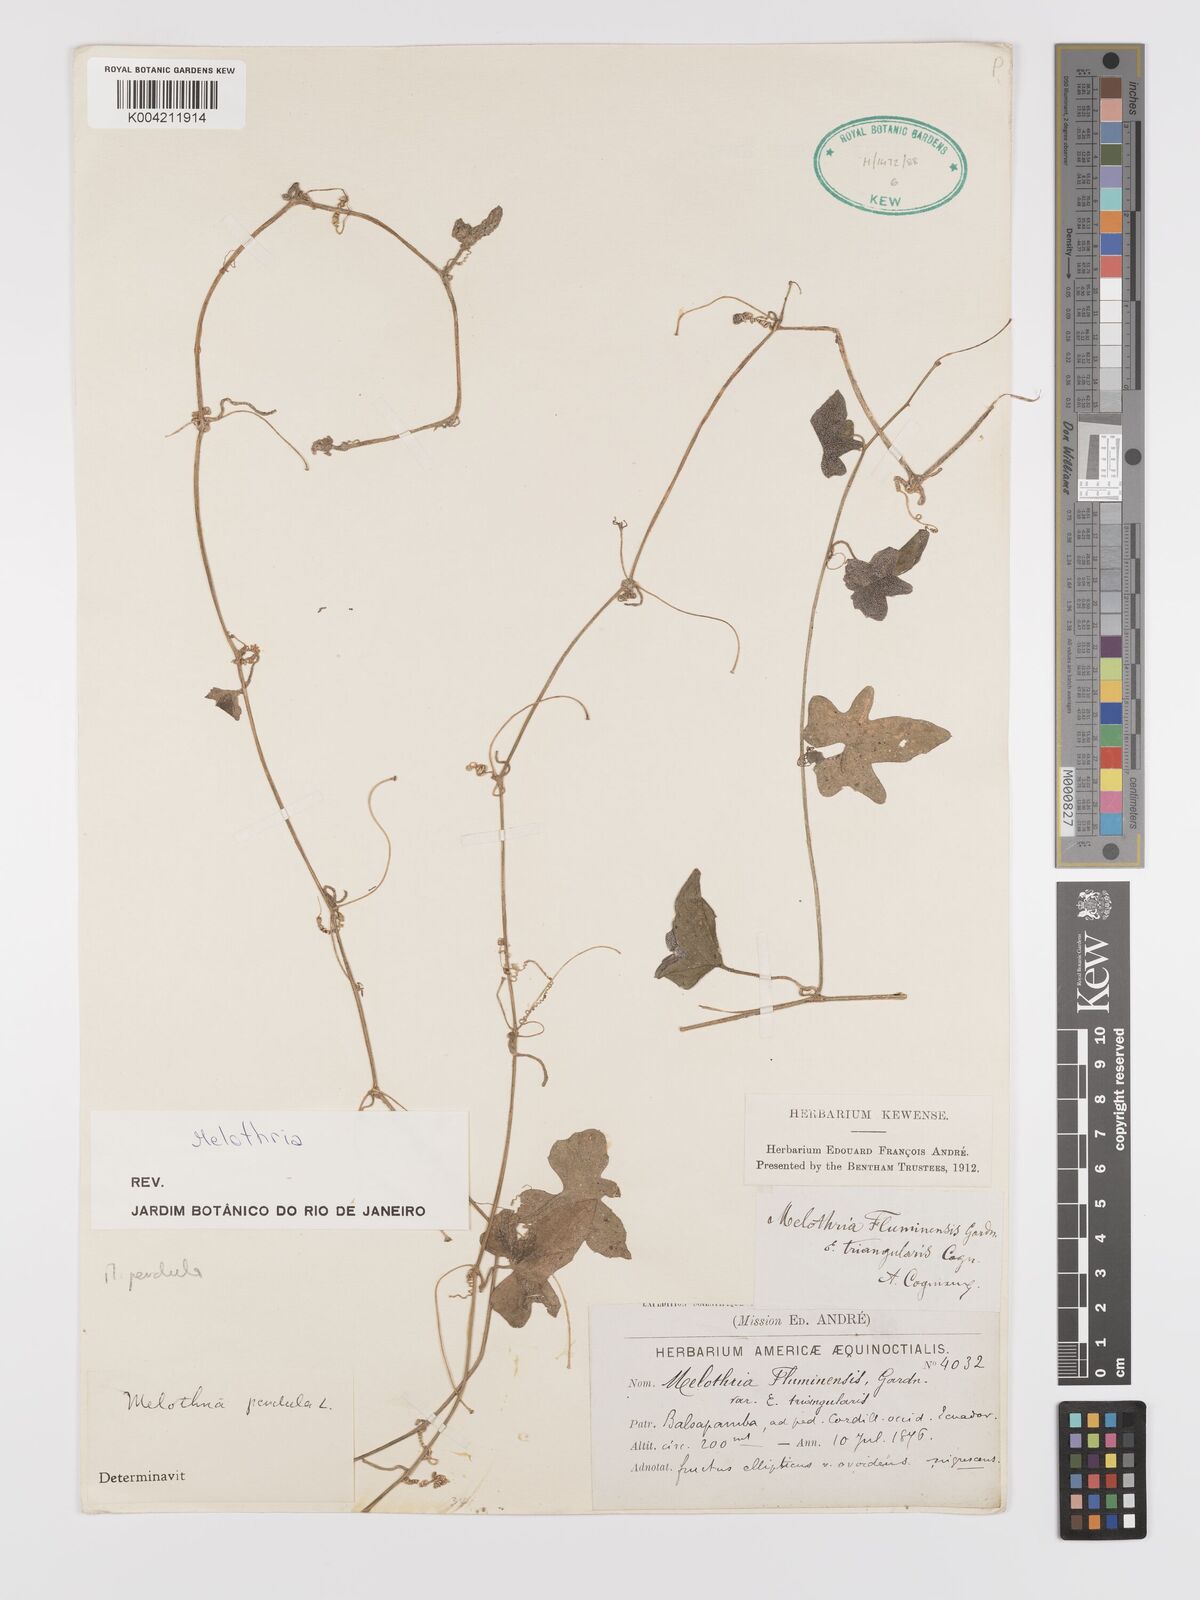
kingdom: Plantae
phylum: Tracheophyta
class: Magnoliopsida
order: Cucurbitales
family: Cucurbitaceae
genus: Melothria
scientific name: Melothria
